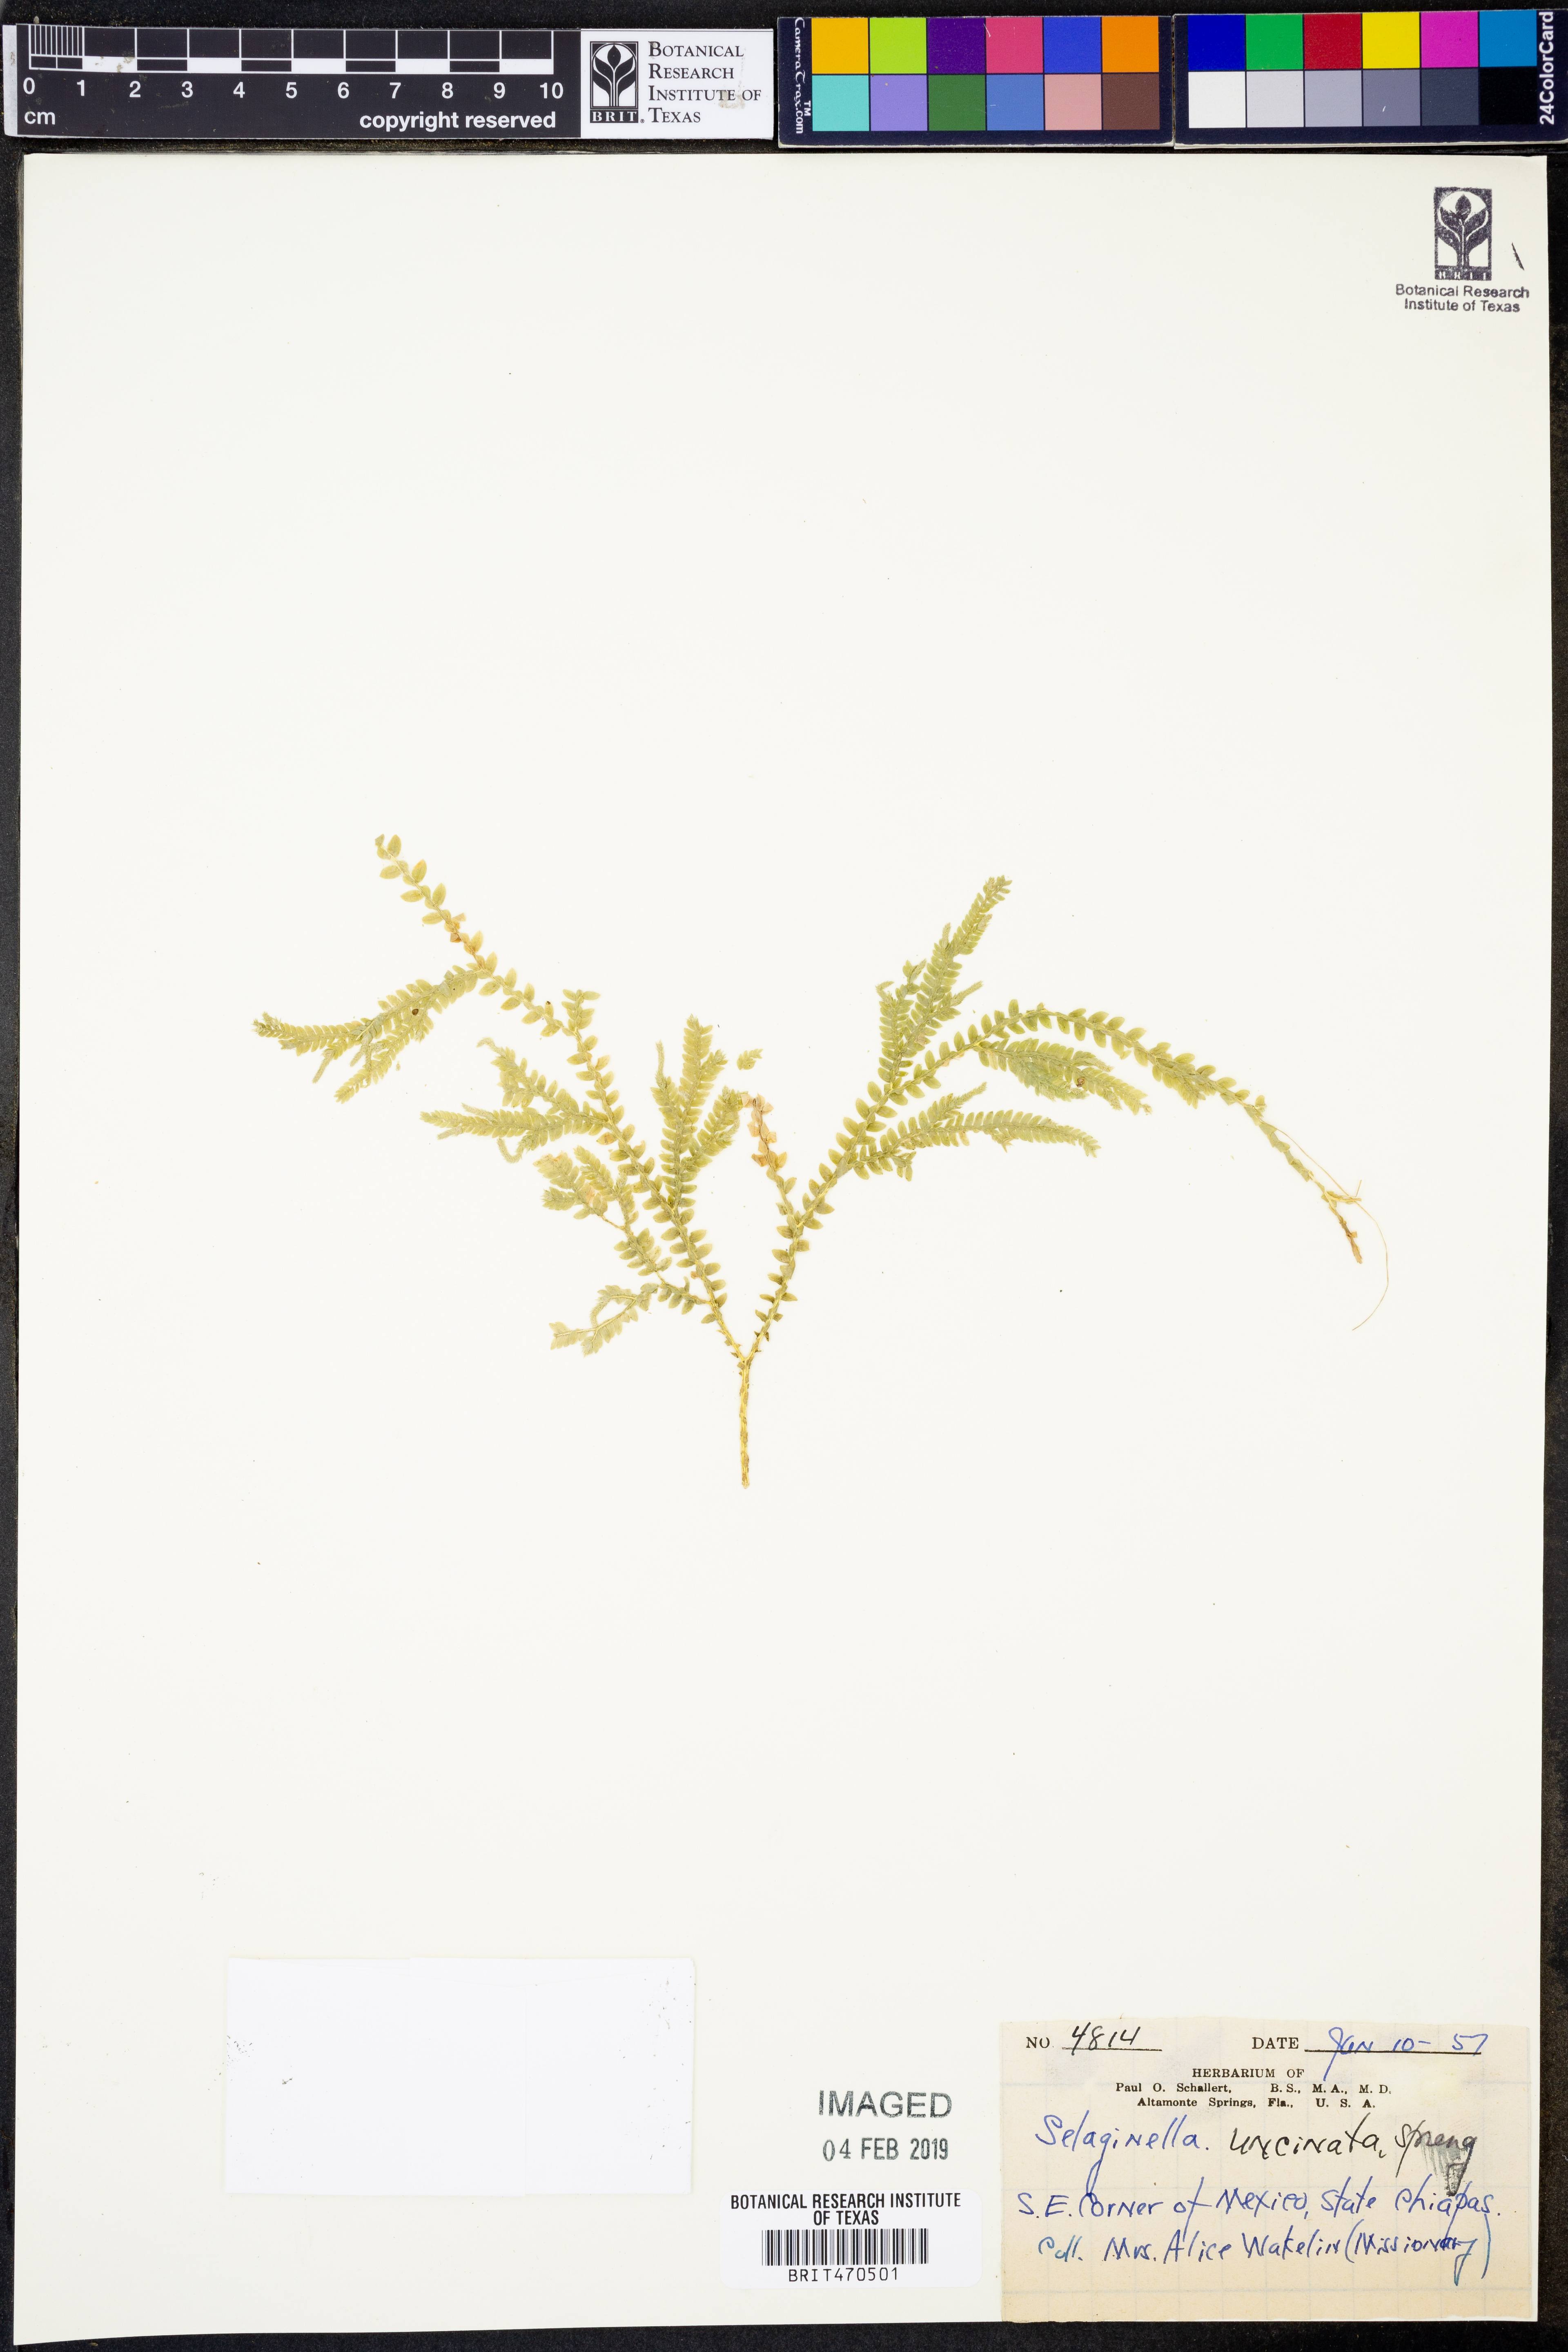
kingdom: Plantae
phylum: Tracheophyta
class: Lycopodiopsida
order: Selaginellales
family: Selaginellaceae
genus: Selaginella
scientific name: Selaginella uncinata
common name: Blue spikemoss
